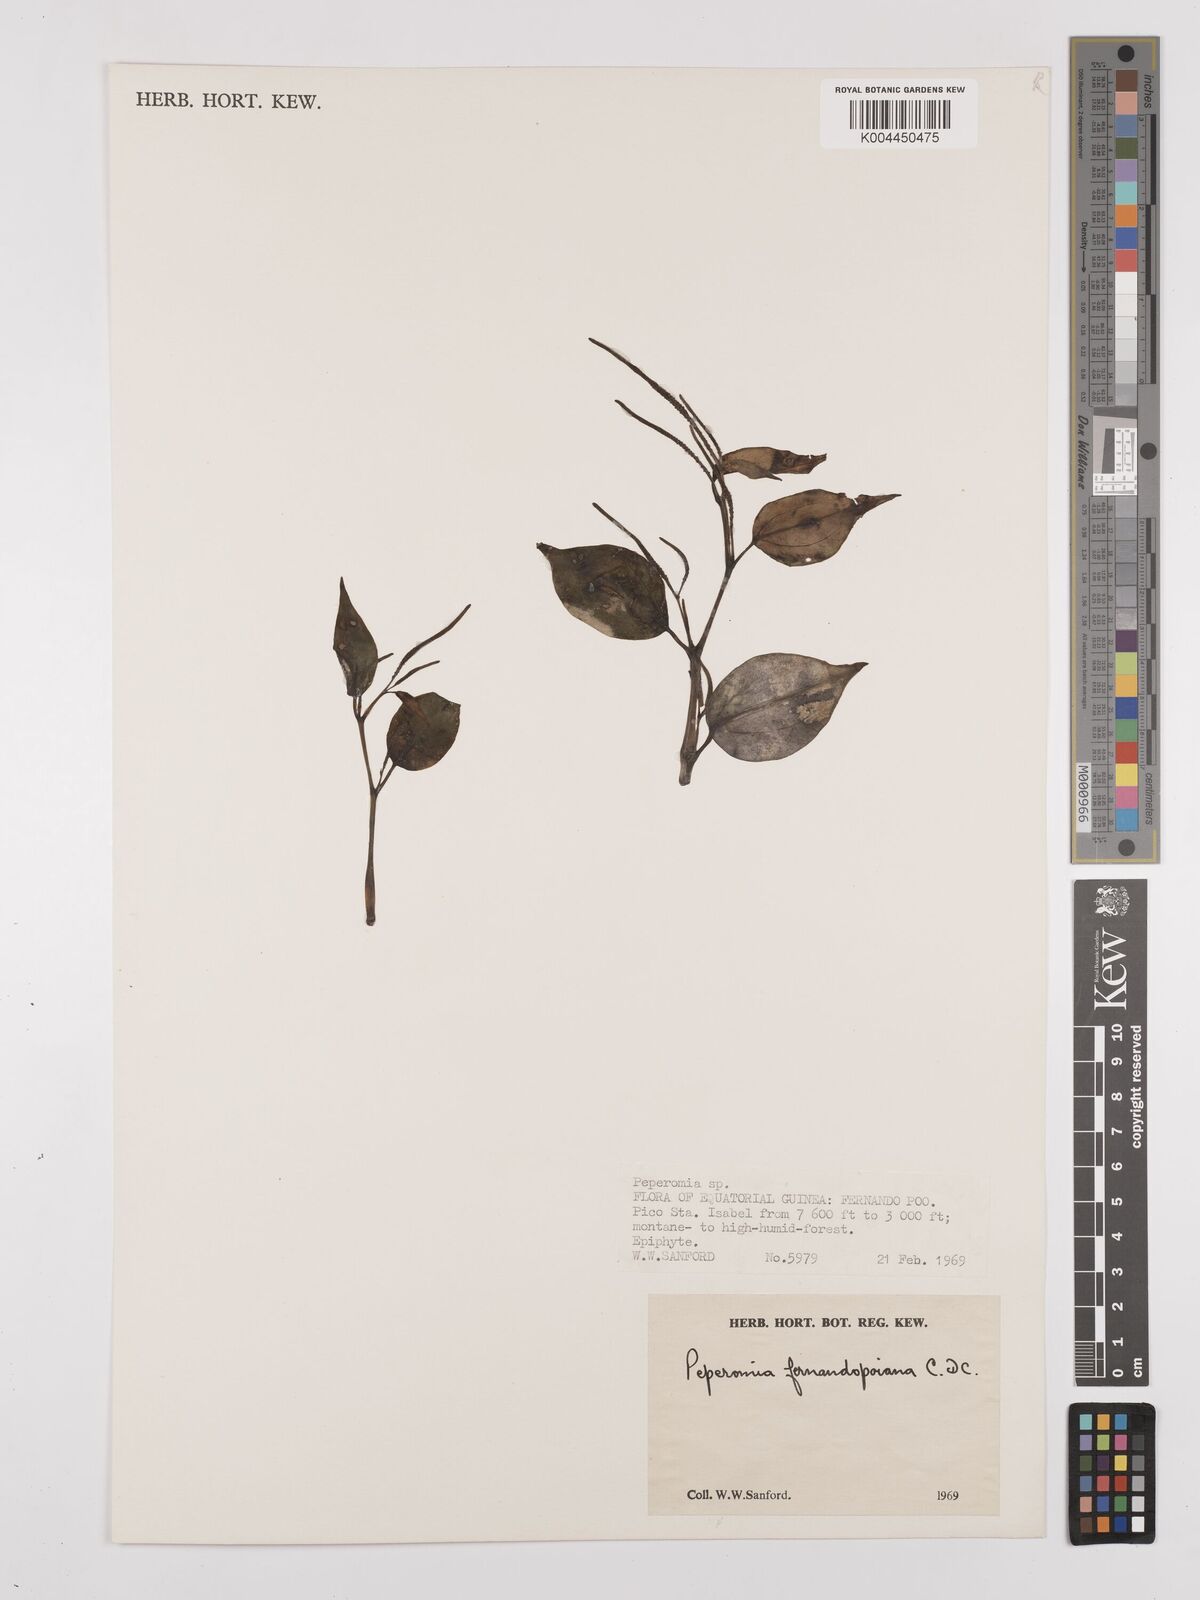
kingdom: Plantae
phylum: Tracheophyta
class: Magnoliopsida
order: Piperales
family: Piperaceae
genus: Peperomia
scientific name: Peperomia fernandopoiana
